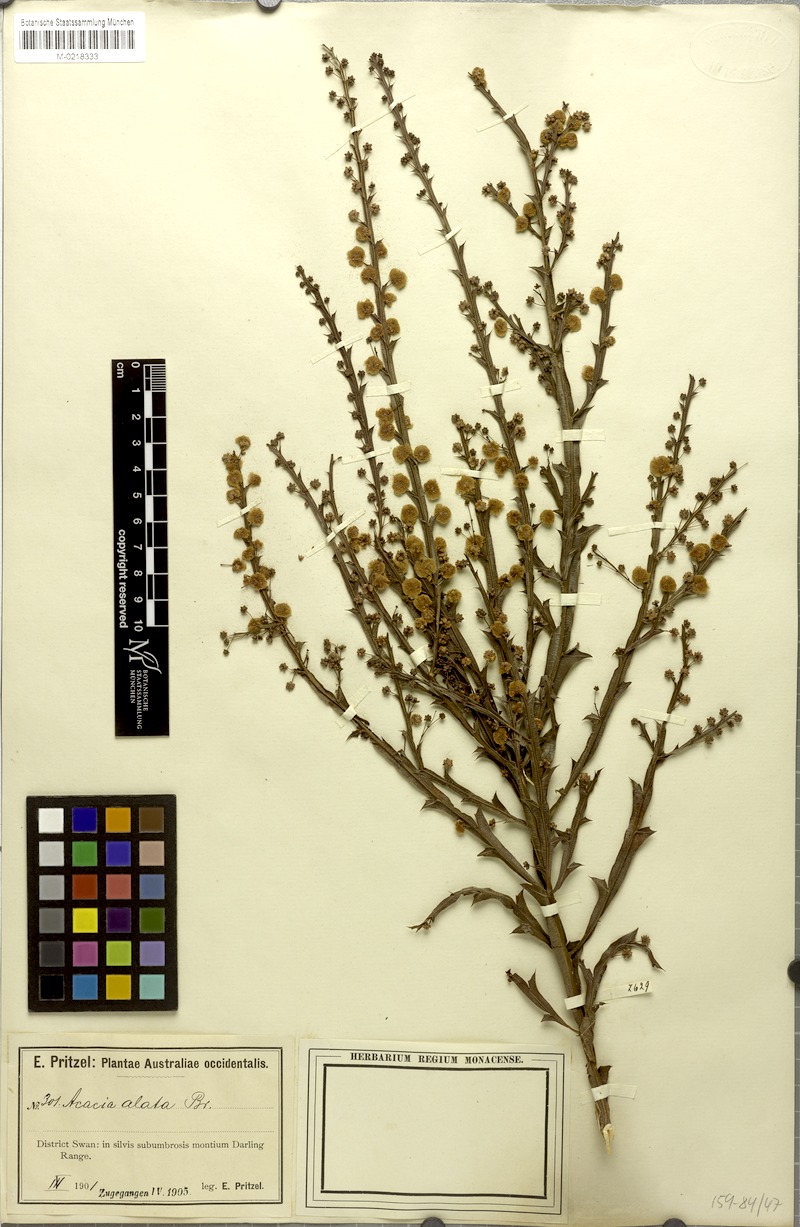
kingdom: Plantae
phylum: Tracheophyta
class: Magnoliopsida
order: Fabales
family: Fabaceae
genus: Acacia
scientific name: Acacia alata
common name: Winged wattle
